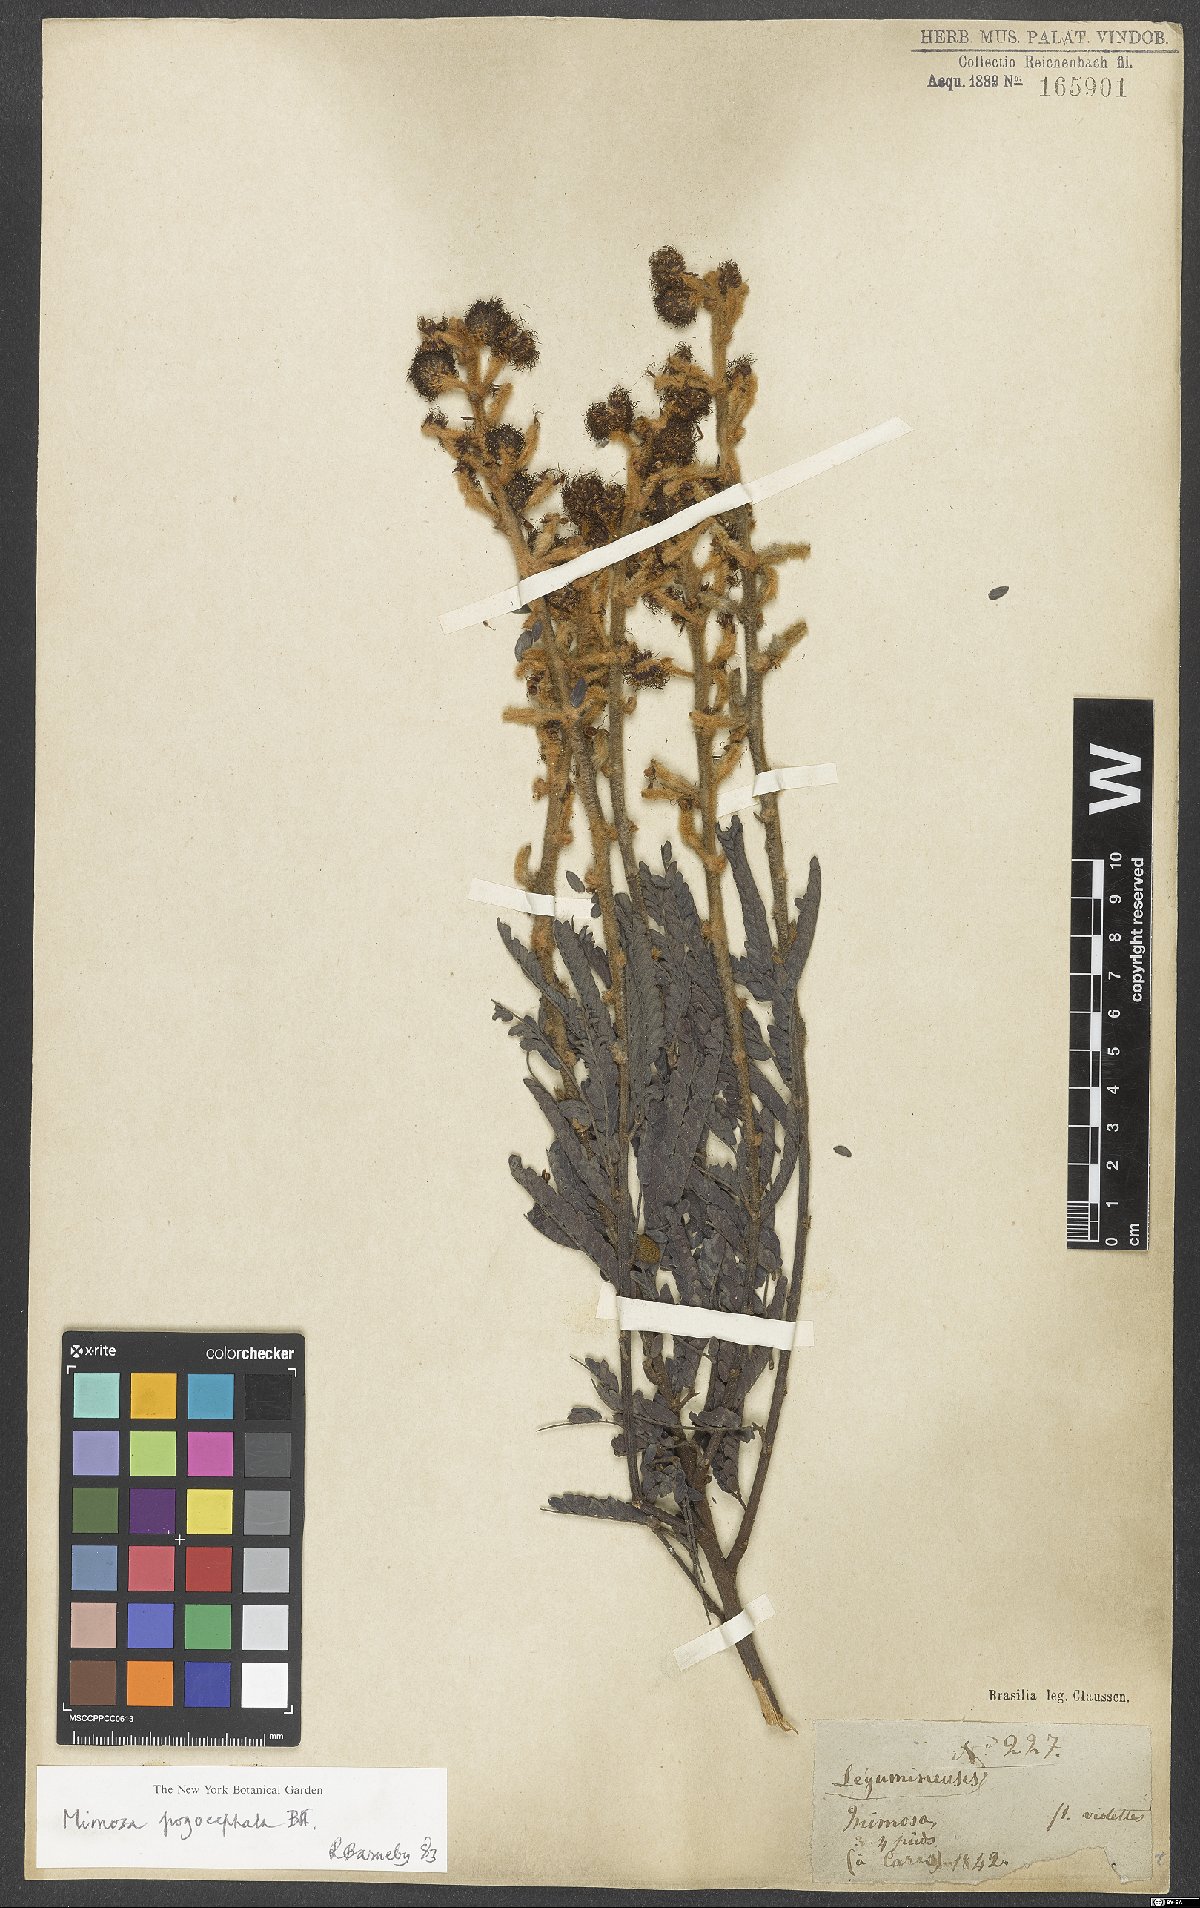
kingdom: Plantae
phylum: Tracheophyta
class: Magnoliopsida
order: Fabales
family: Fabaceae
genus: Mimosa
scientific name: Mimosa pogocephala
